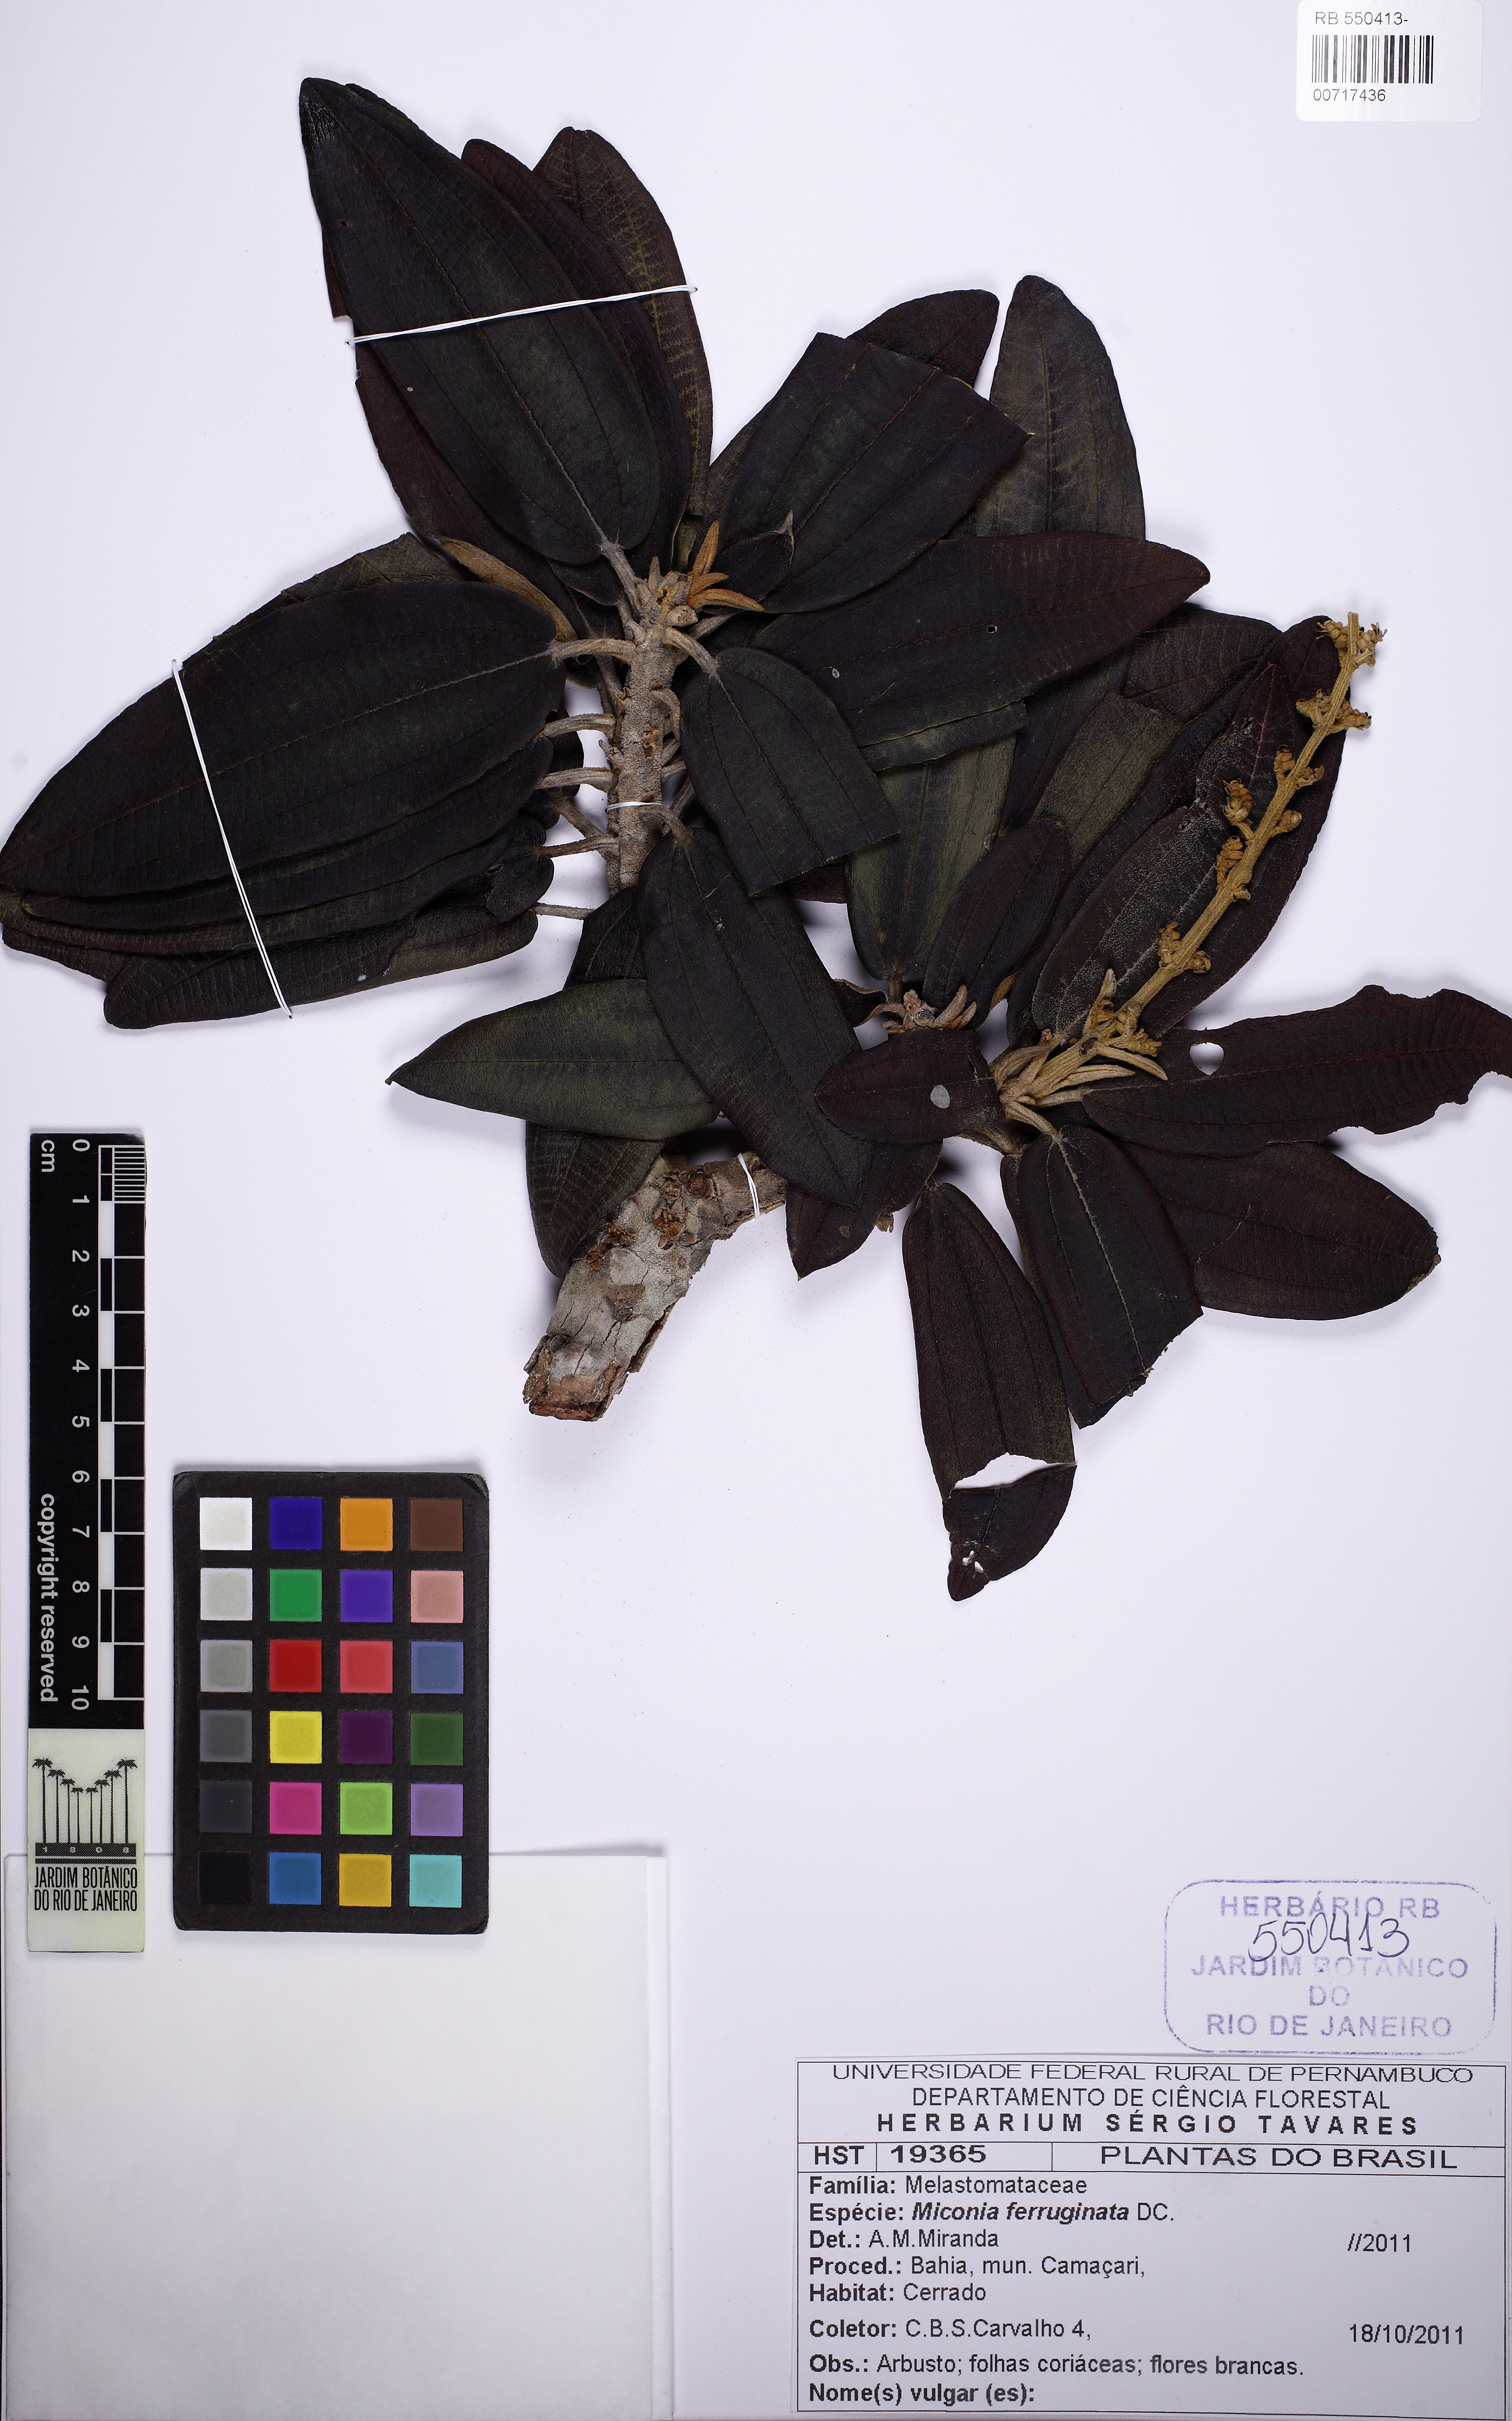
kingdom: Plantae
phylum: Tracheophyta
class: Magnoliopsida
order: Myrtales
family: Melastomataceae
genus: Miconia
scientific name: Miconia ferruginata
